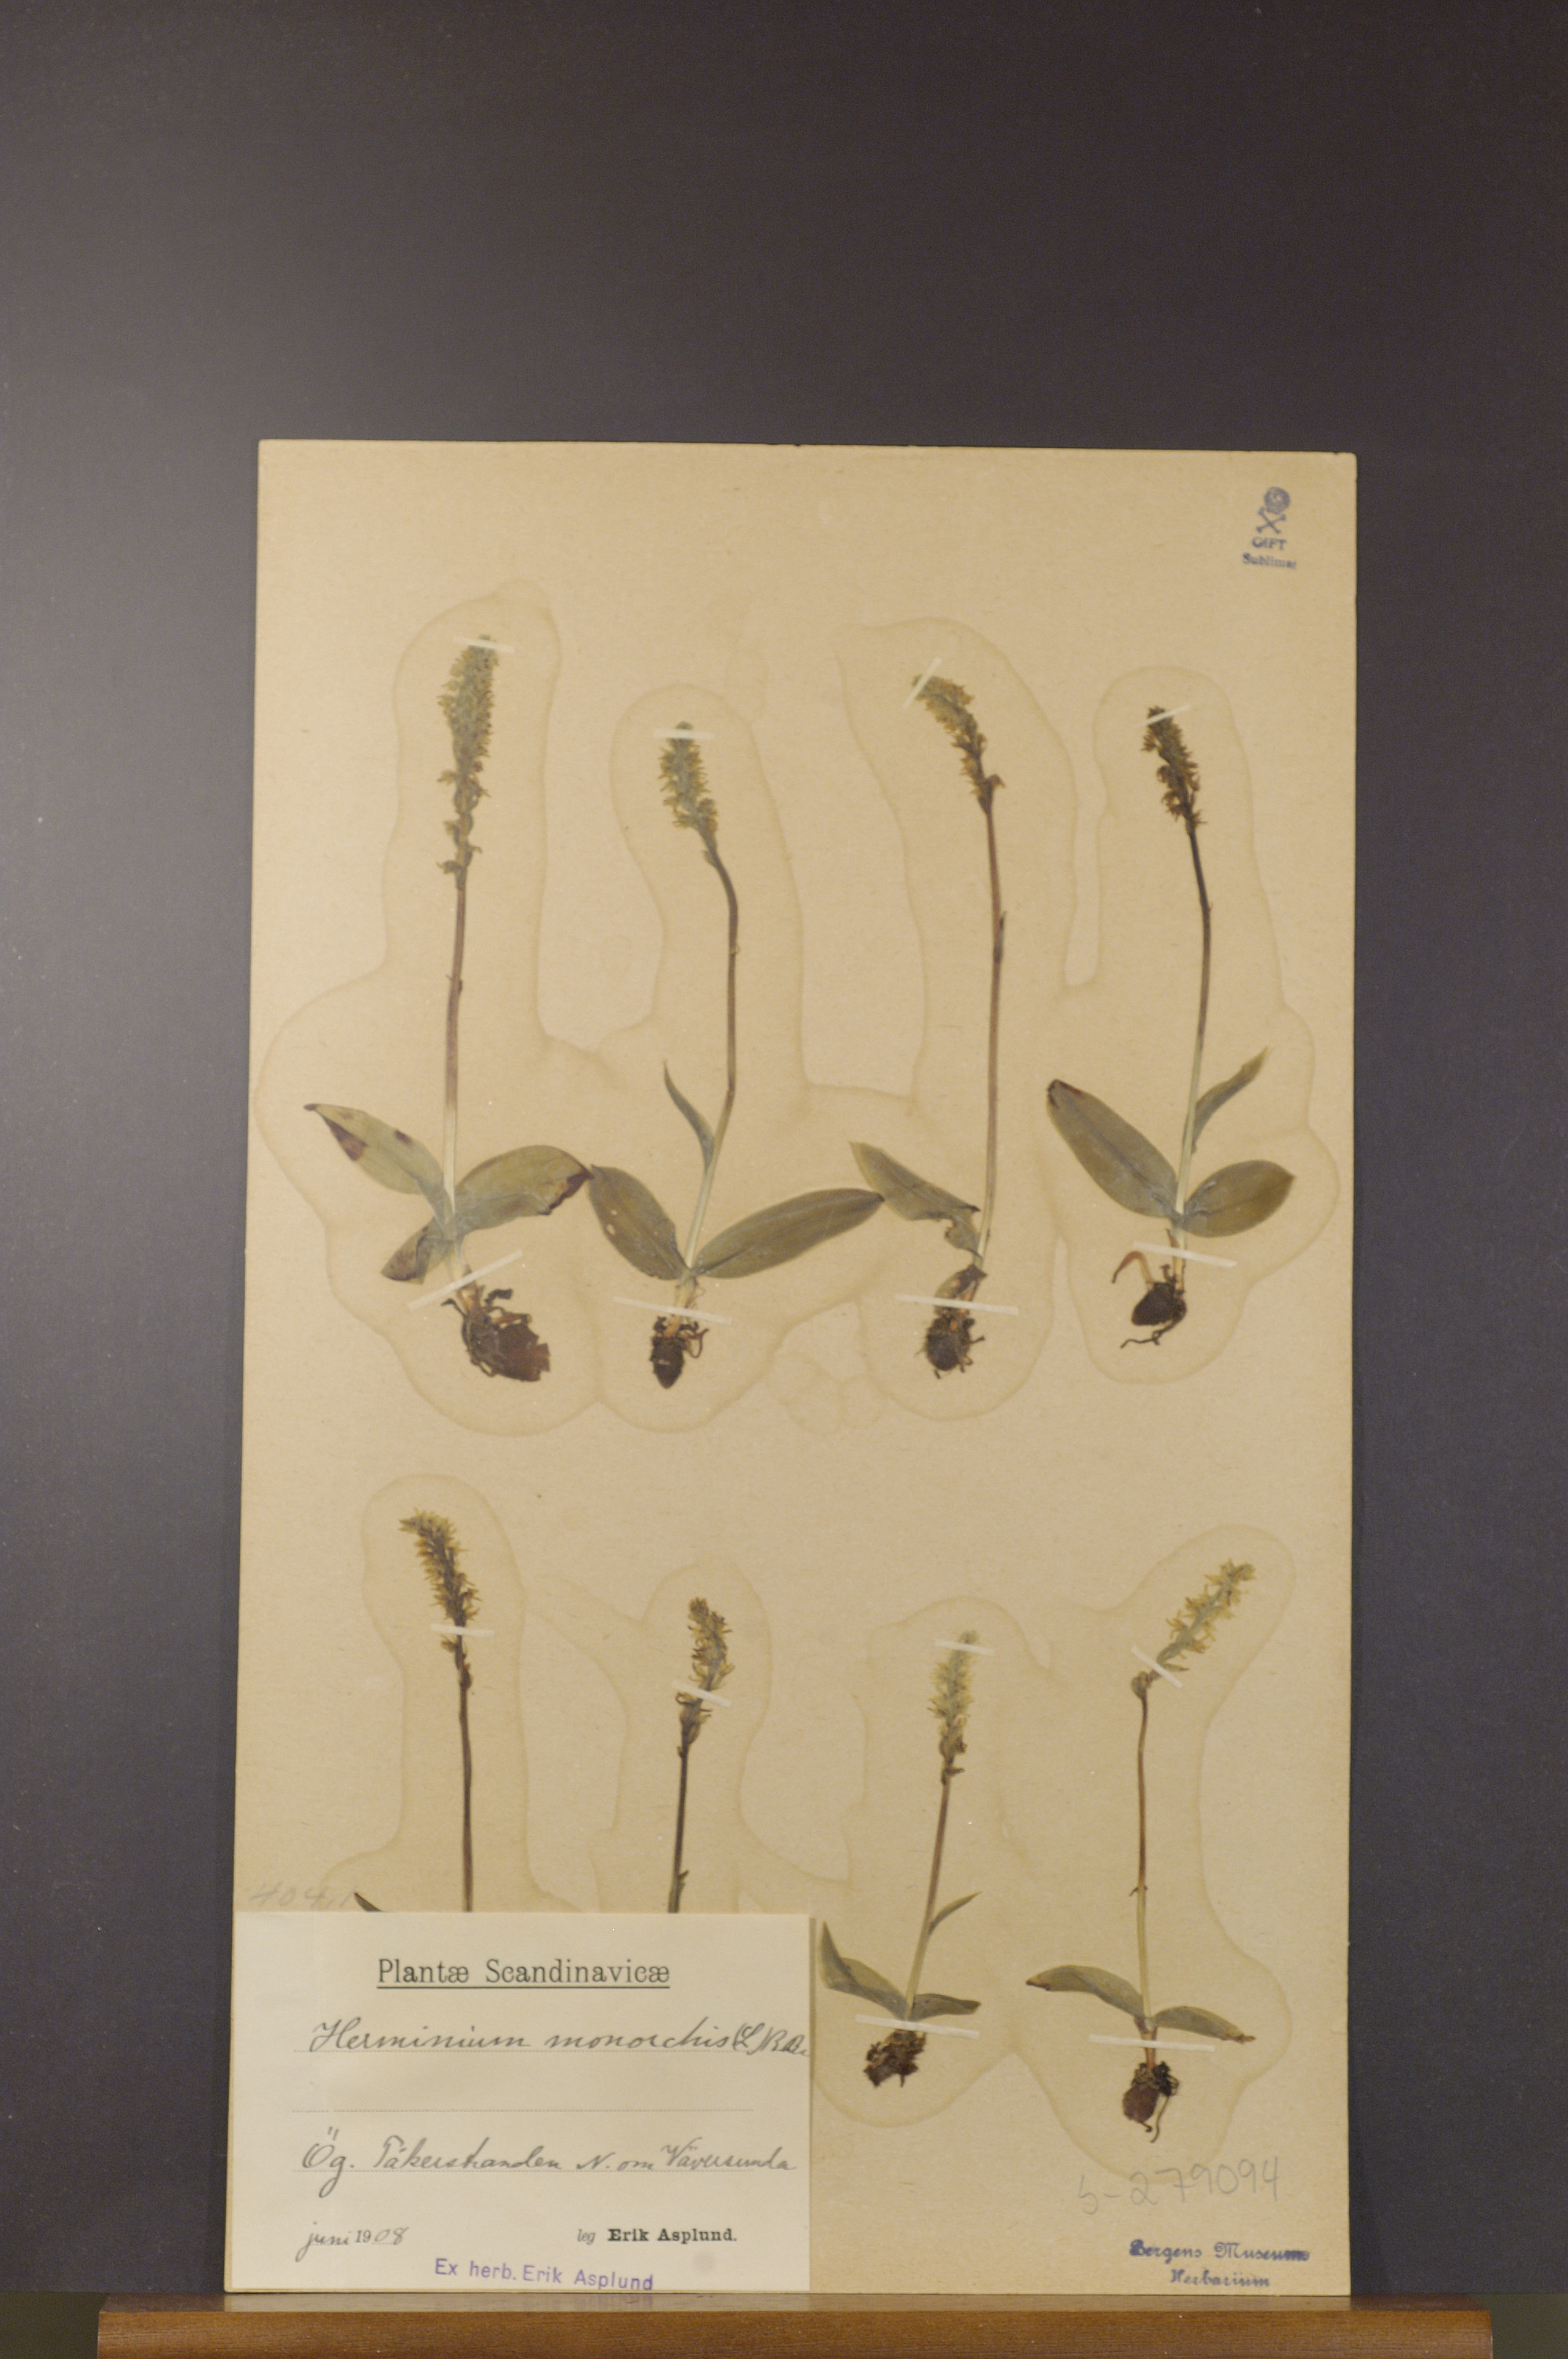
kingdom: Plantae
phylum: Tracheophyta
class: Liliopsida
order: Asparagales
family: Orchidaceae
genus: Herminium
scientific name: Herminium monorchis
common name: Musk orchid
